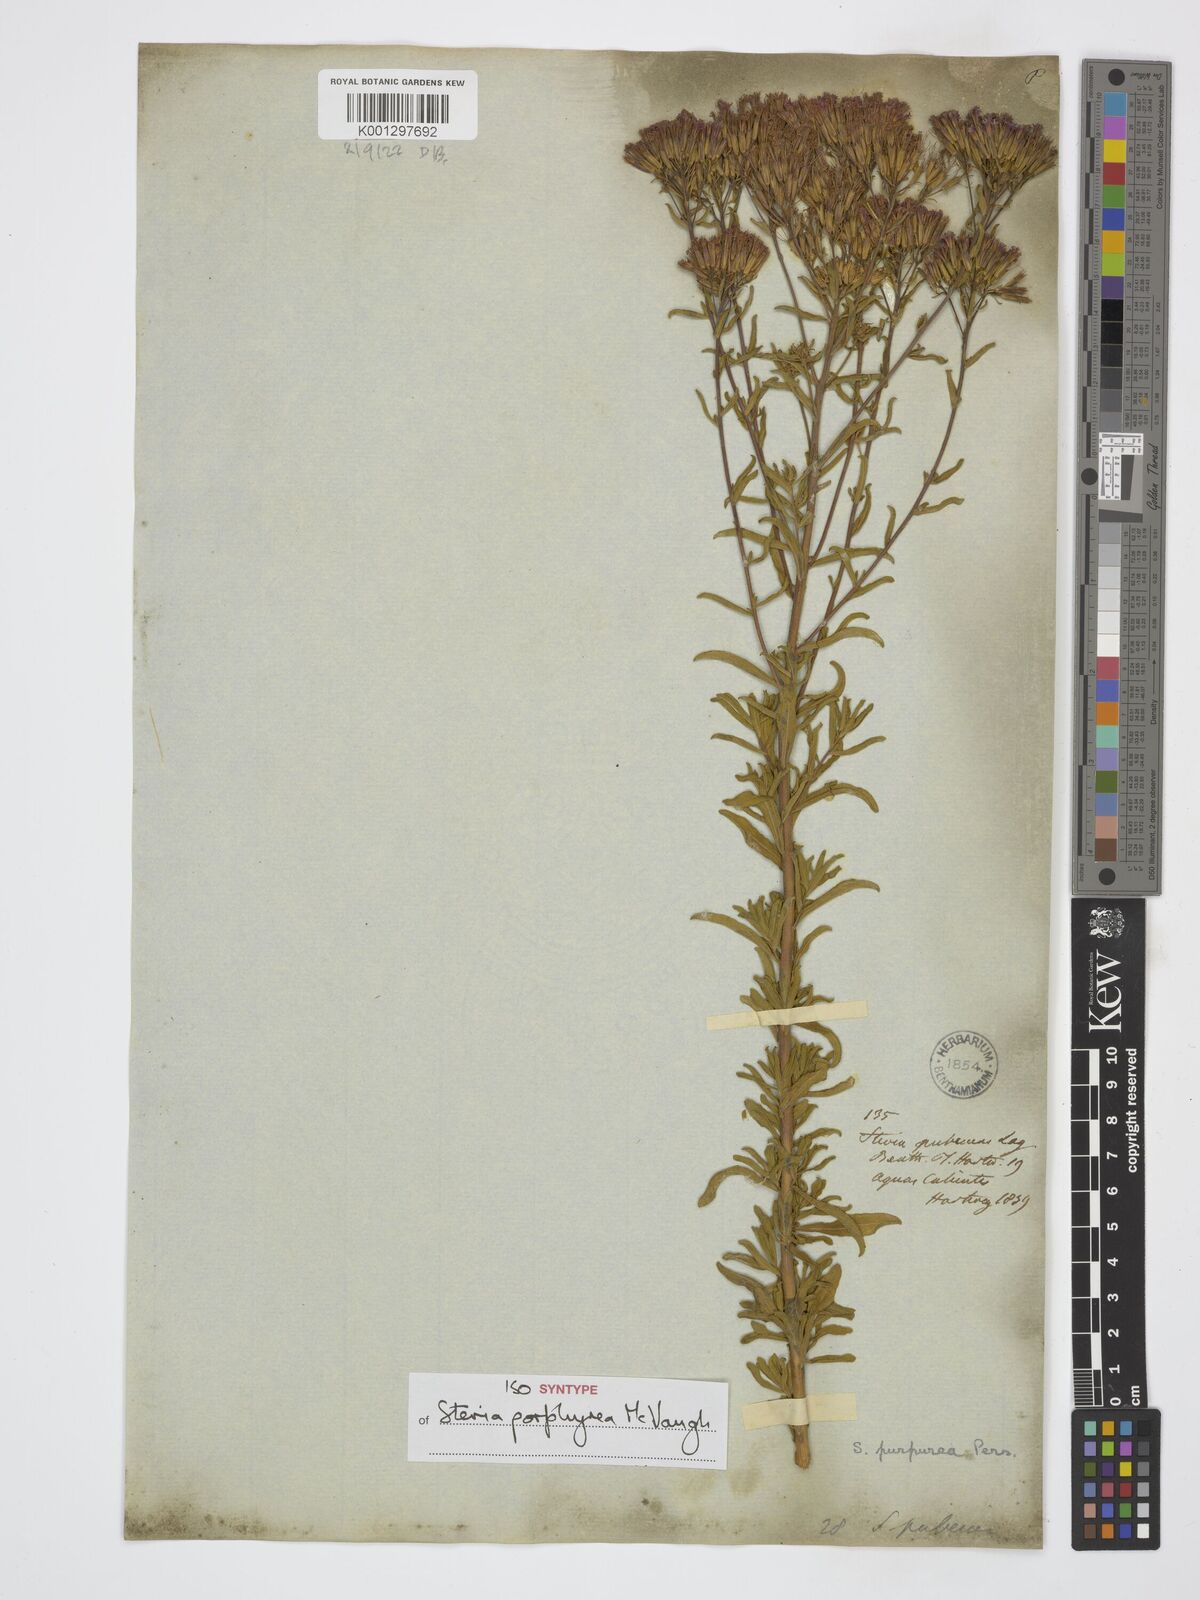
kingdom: Plantae
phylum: Tracheophyta
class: Magnoliopsida
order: Asterales
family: Asteraceae
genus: Stevia
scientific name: Stevia porphyrea
